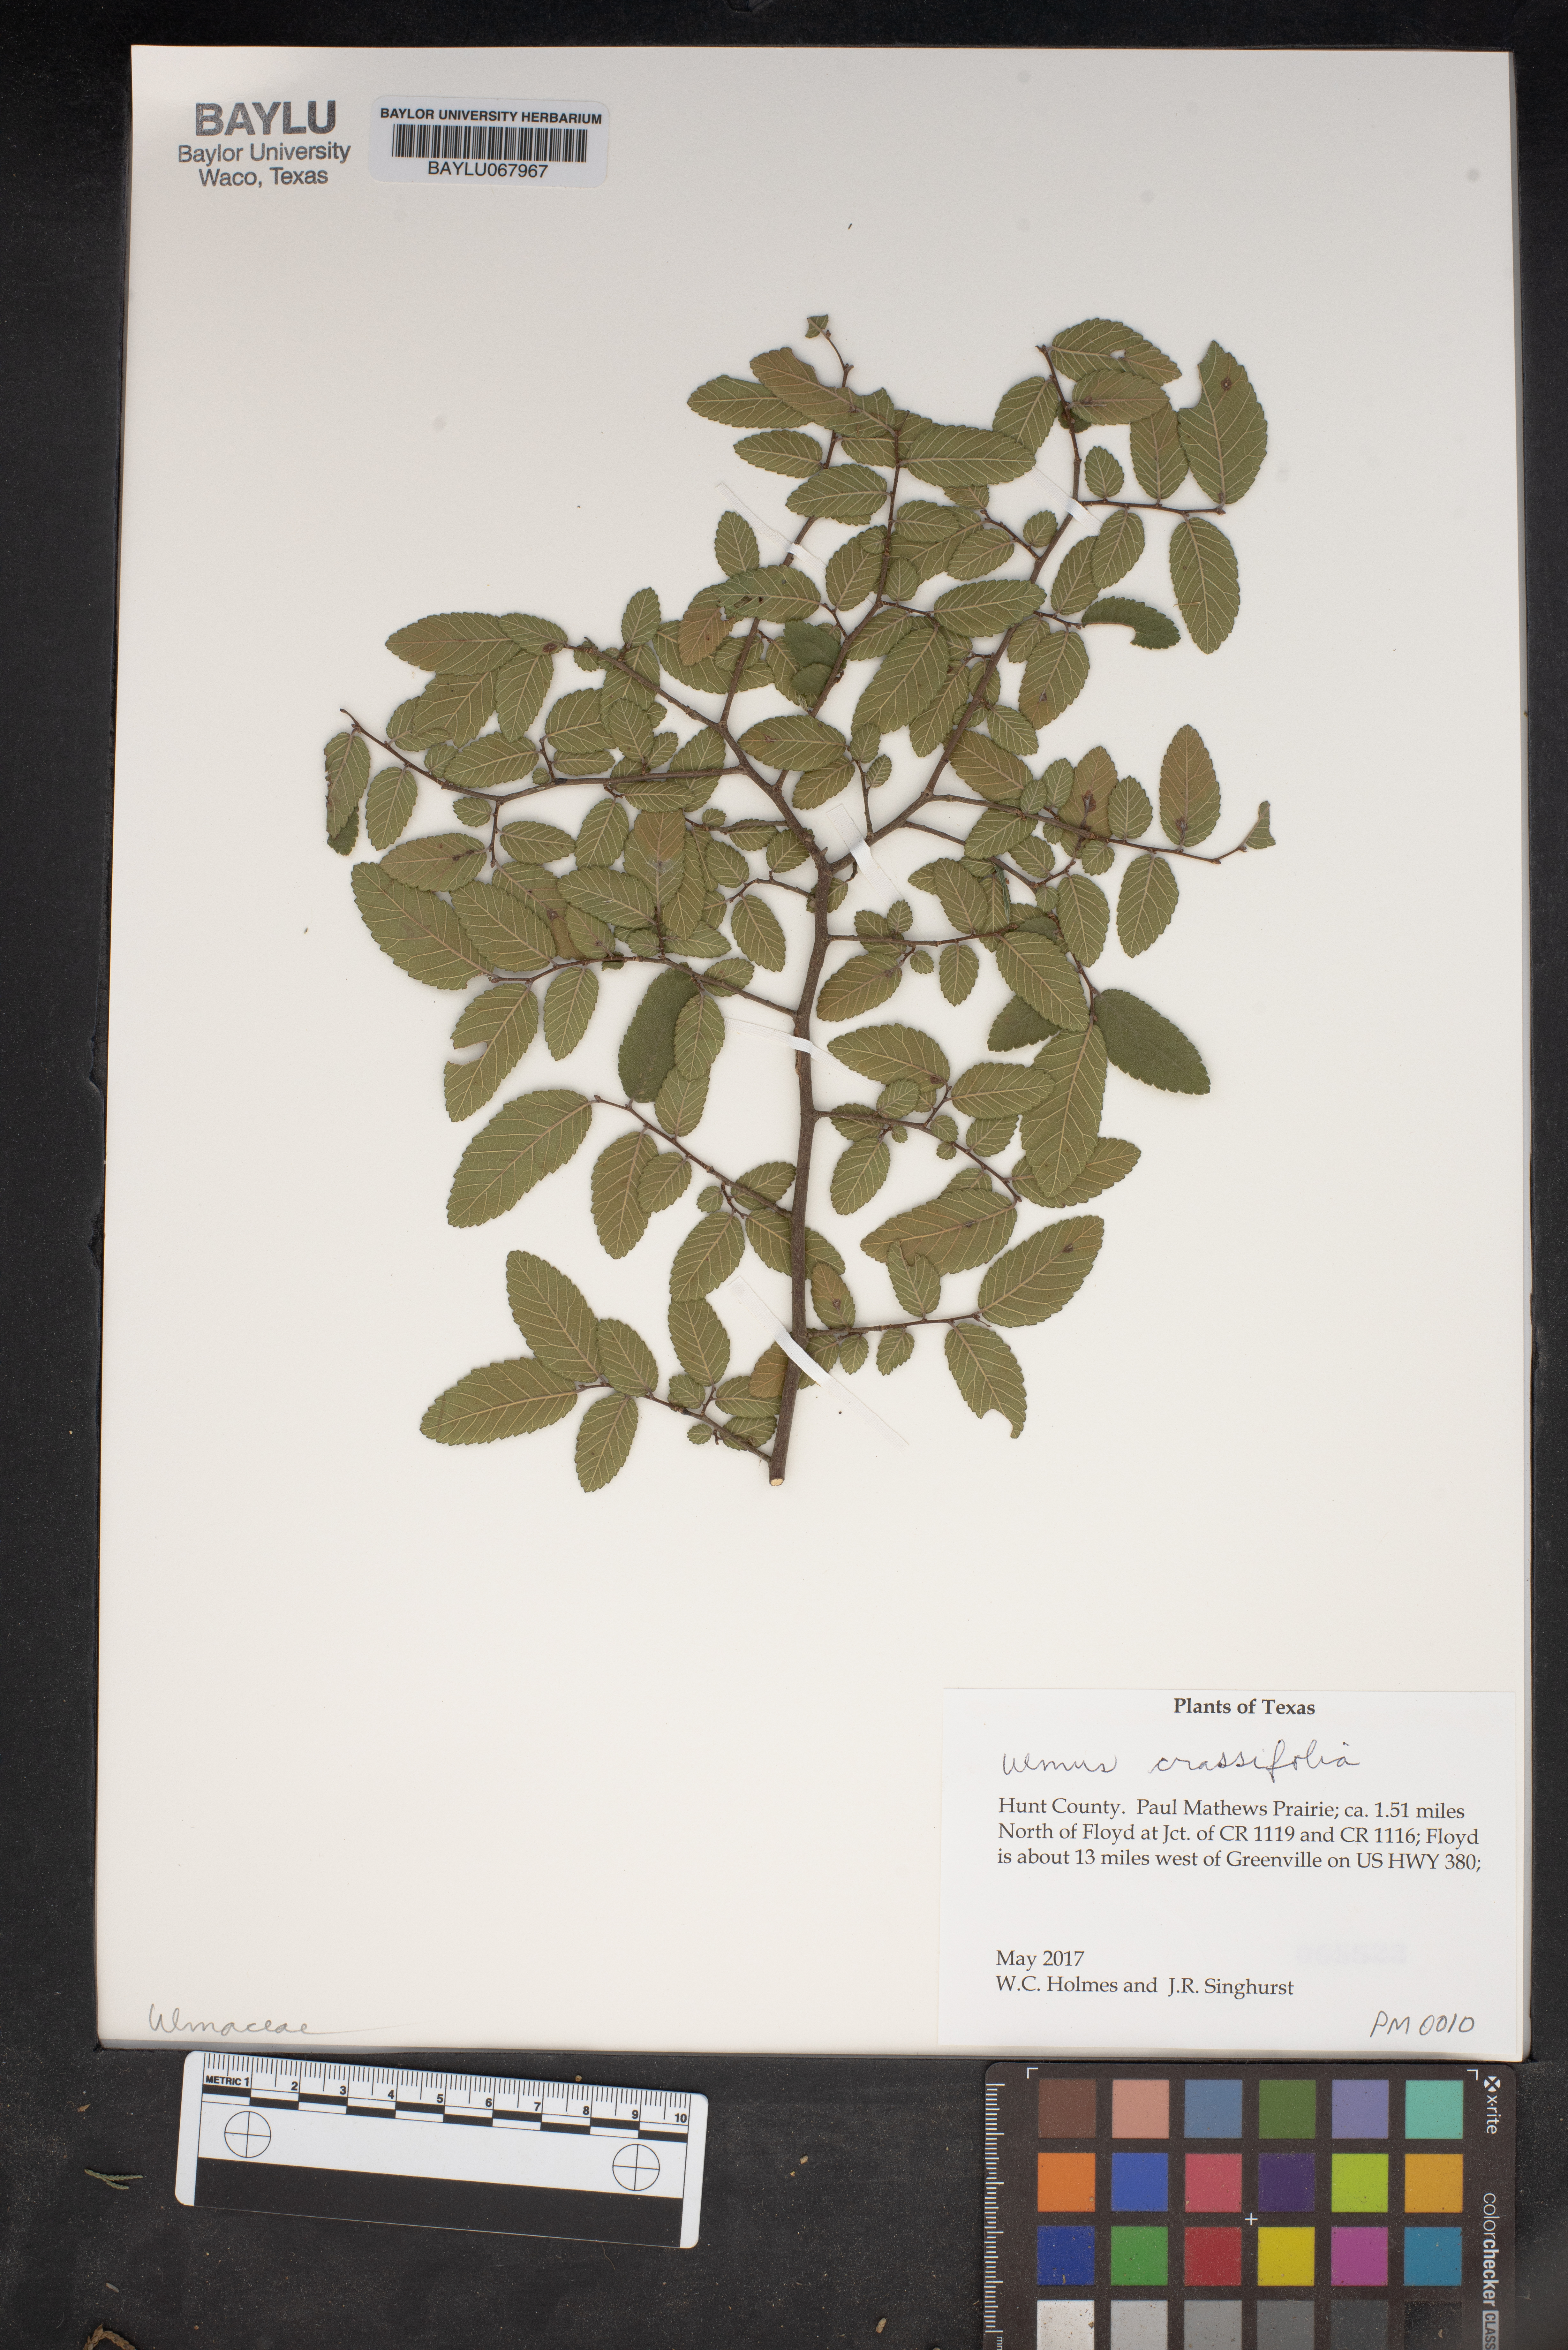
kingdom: Plantae
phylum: Tracheophyta
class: Magnoliopsida
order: Rosales
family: Ulmaceae
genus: Ulmus
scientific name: Ulmus crassifolia
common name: Basket elm
